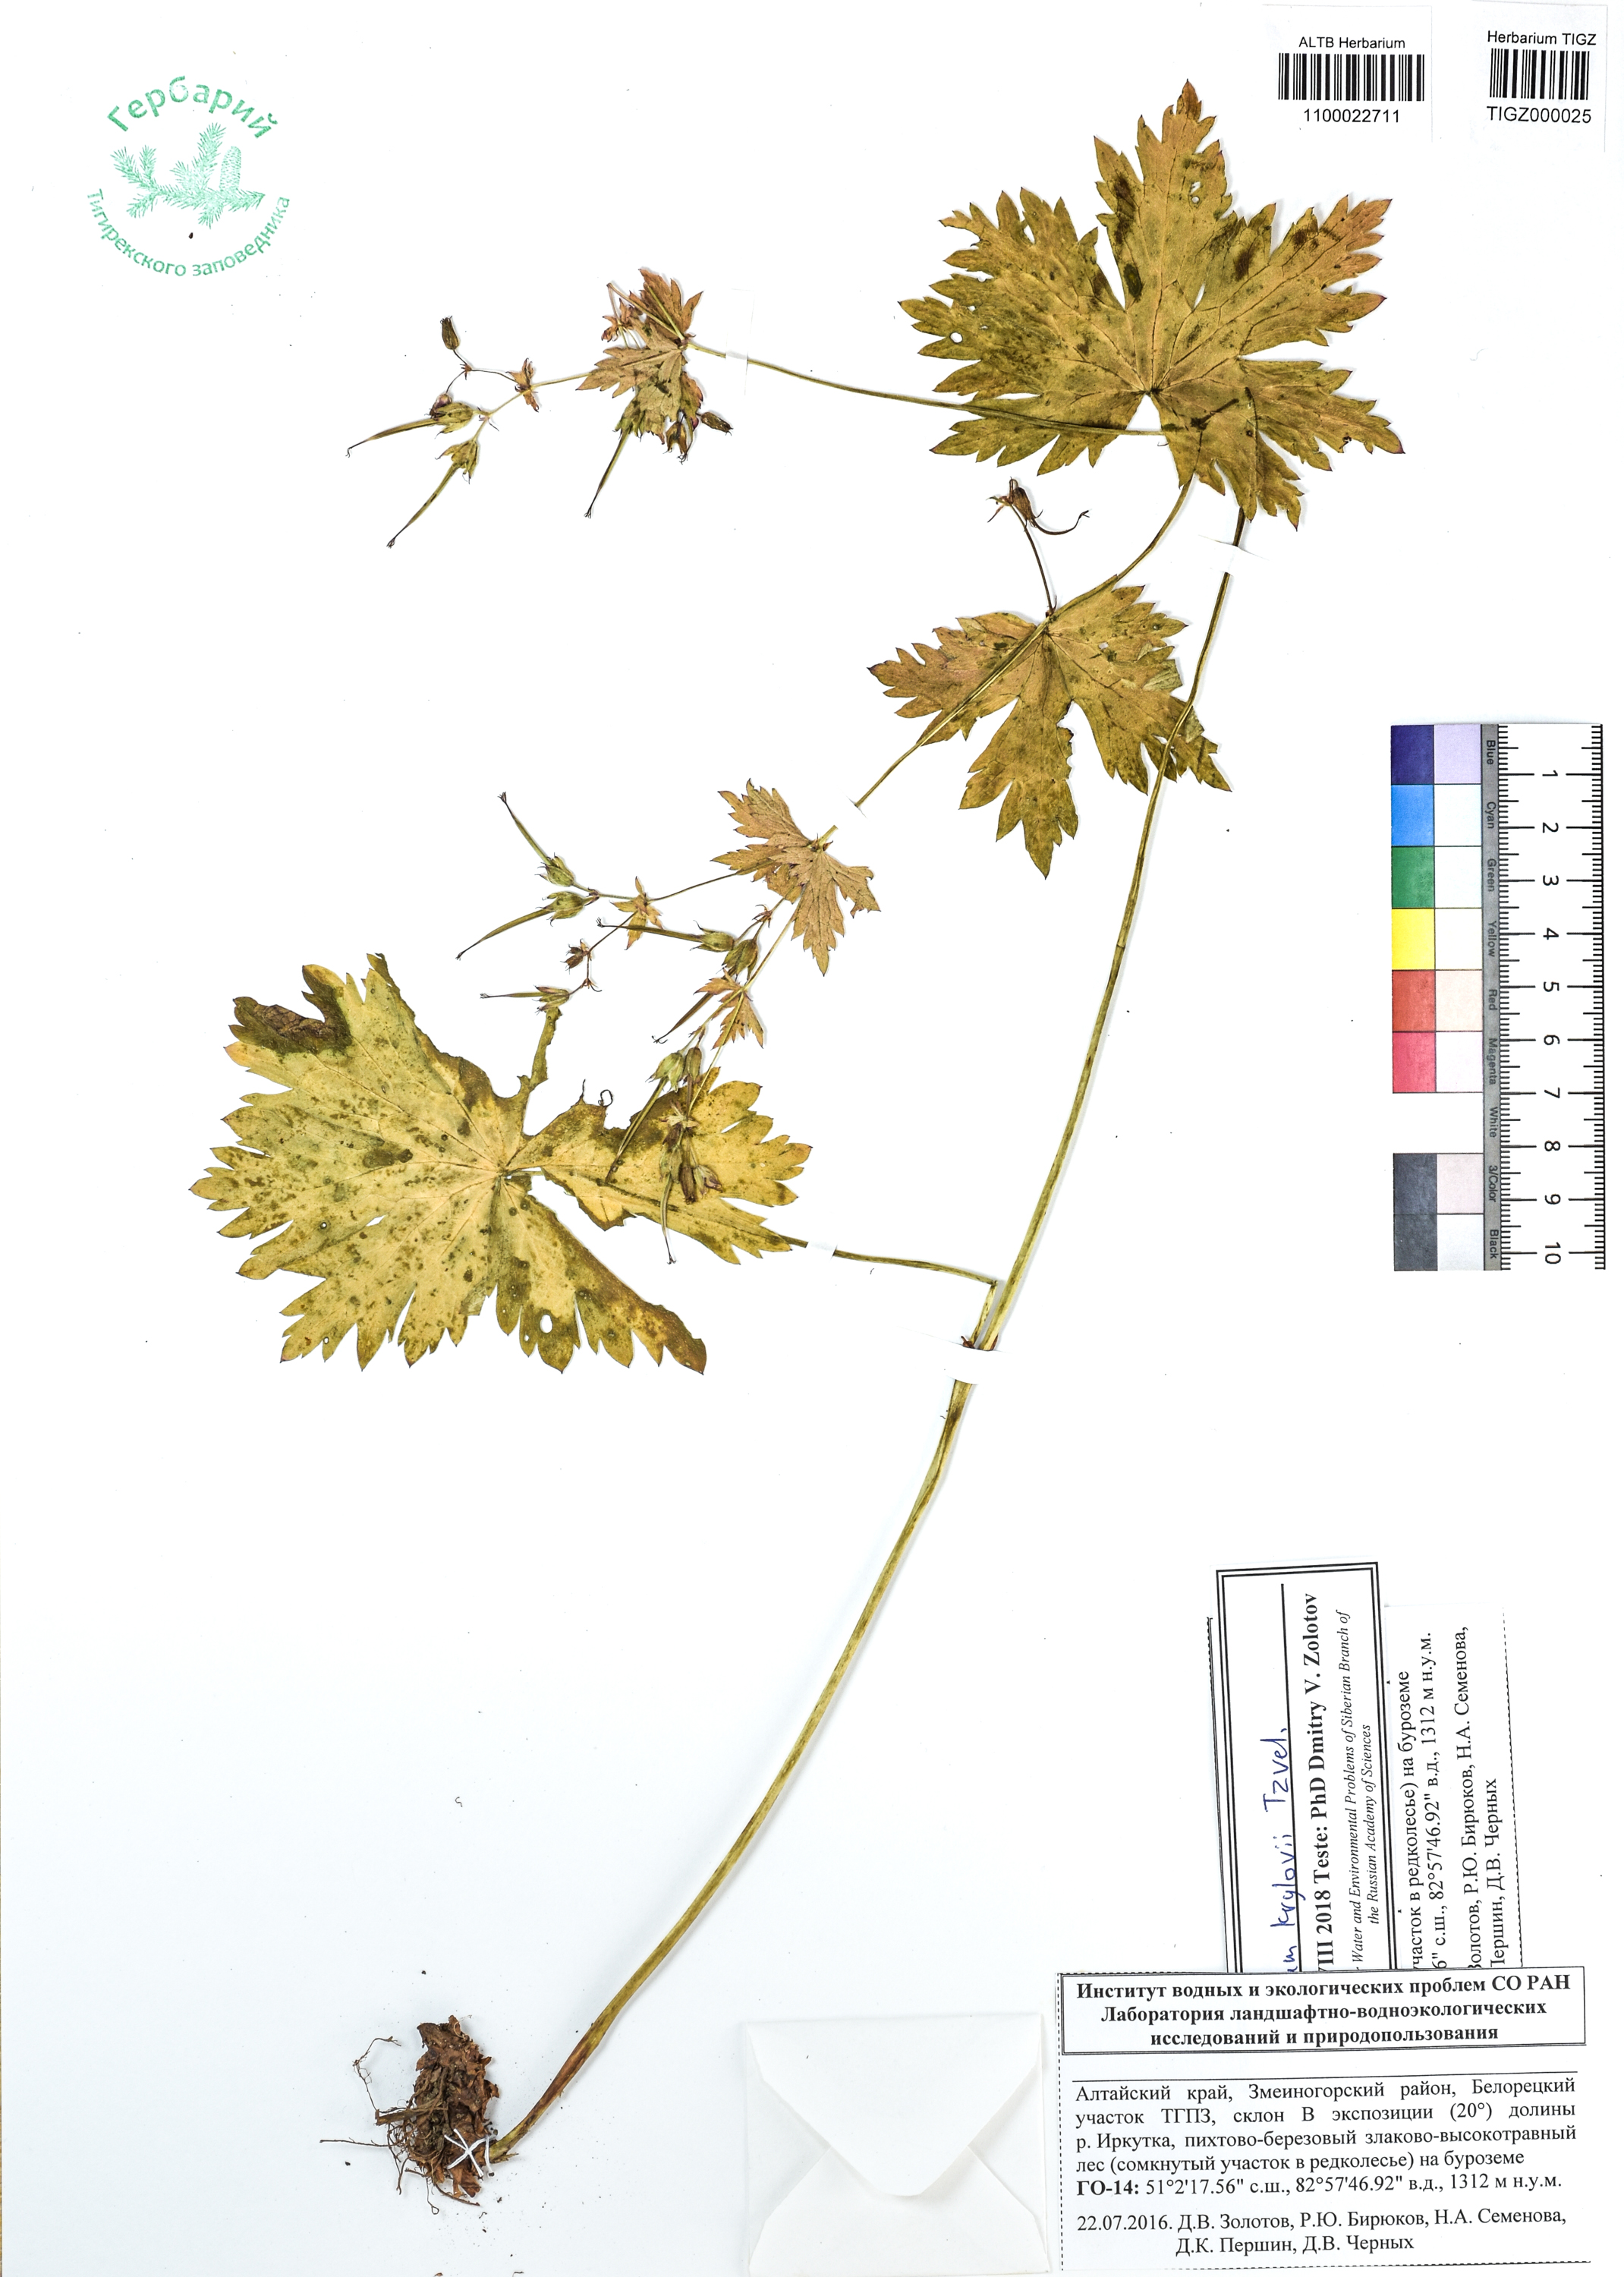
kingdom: Plantae
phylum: Tracheophyta
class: Magnoliopsida
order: Geraniales
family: Geraniaceae
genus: Geranium
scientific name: Geranium sylvaticum
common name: Wood crane's-bill
